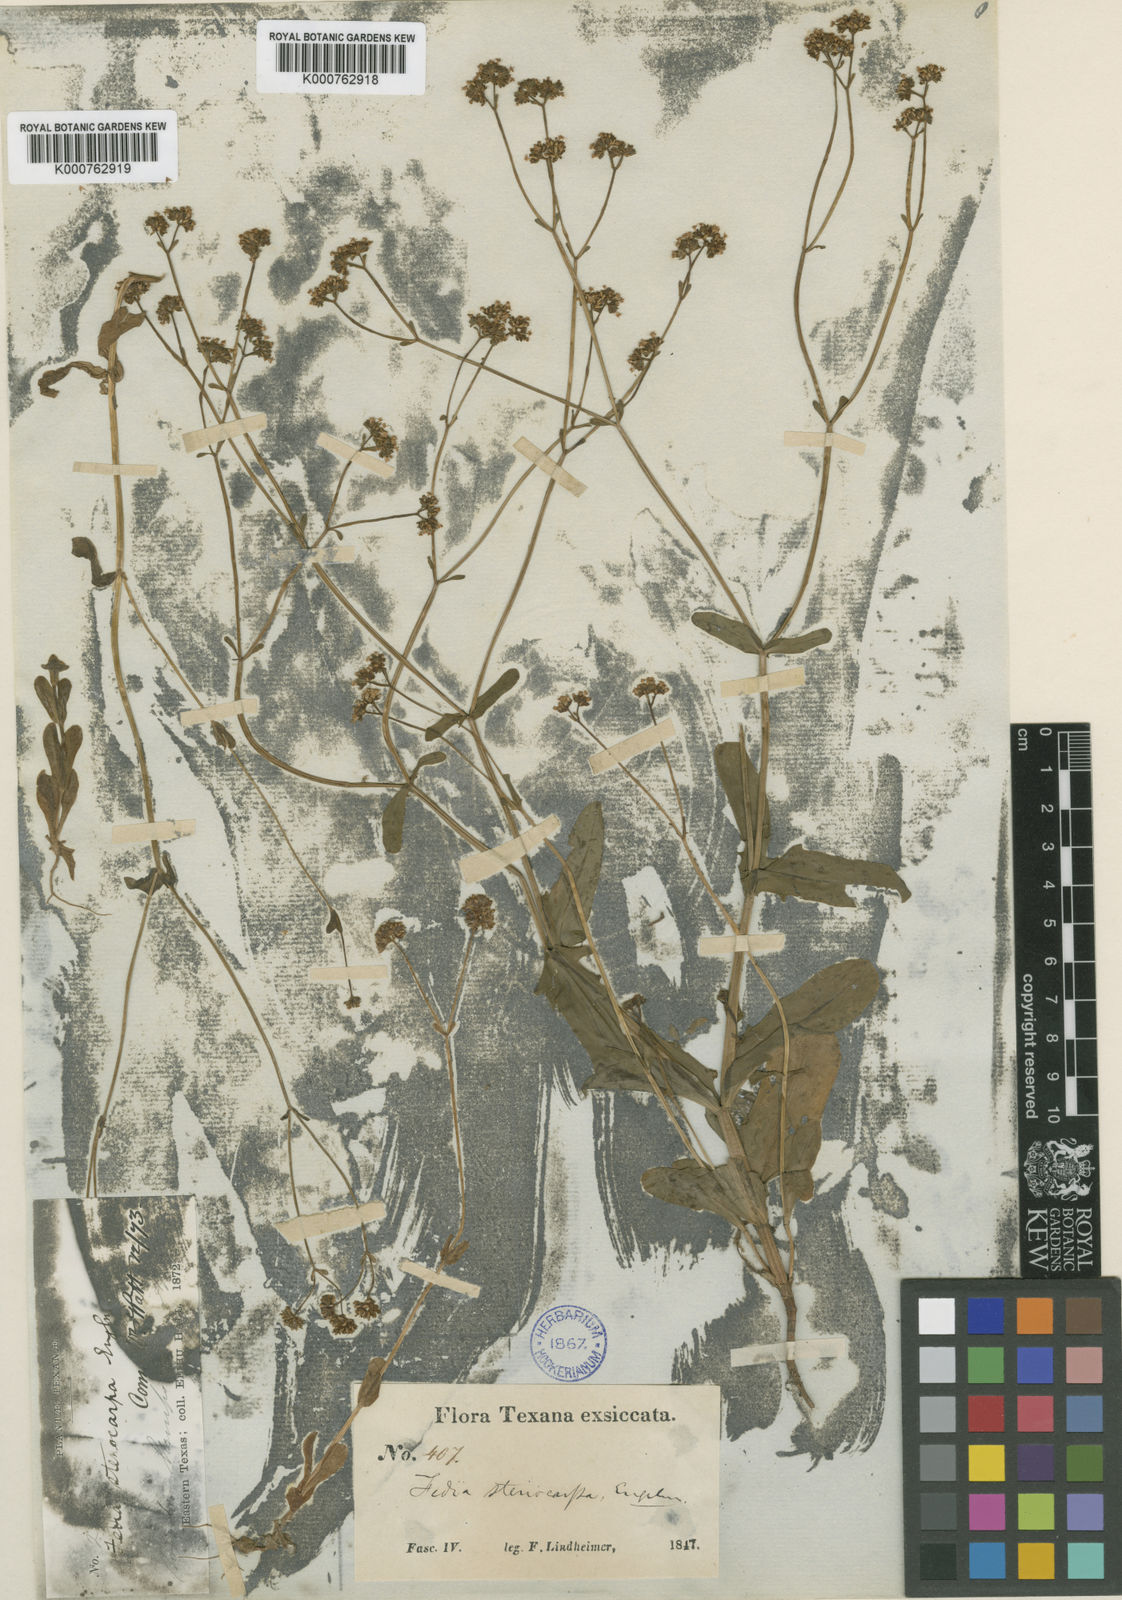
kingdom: Plantae
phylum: Tracheophyta
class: Magnoliopsida
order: Dipsacales
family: Caprifoliaceae
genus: Valerianella
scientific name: Valerianella stenocarpa
